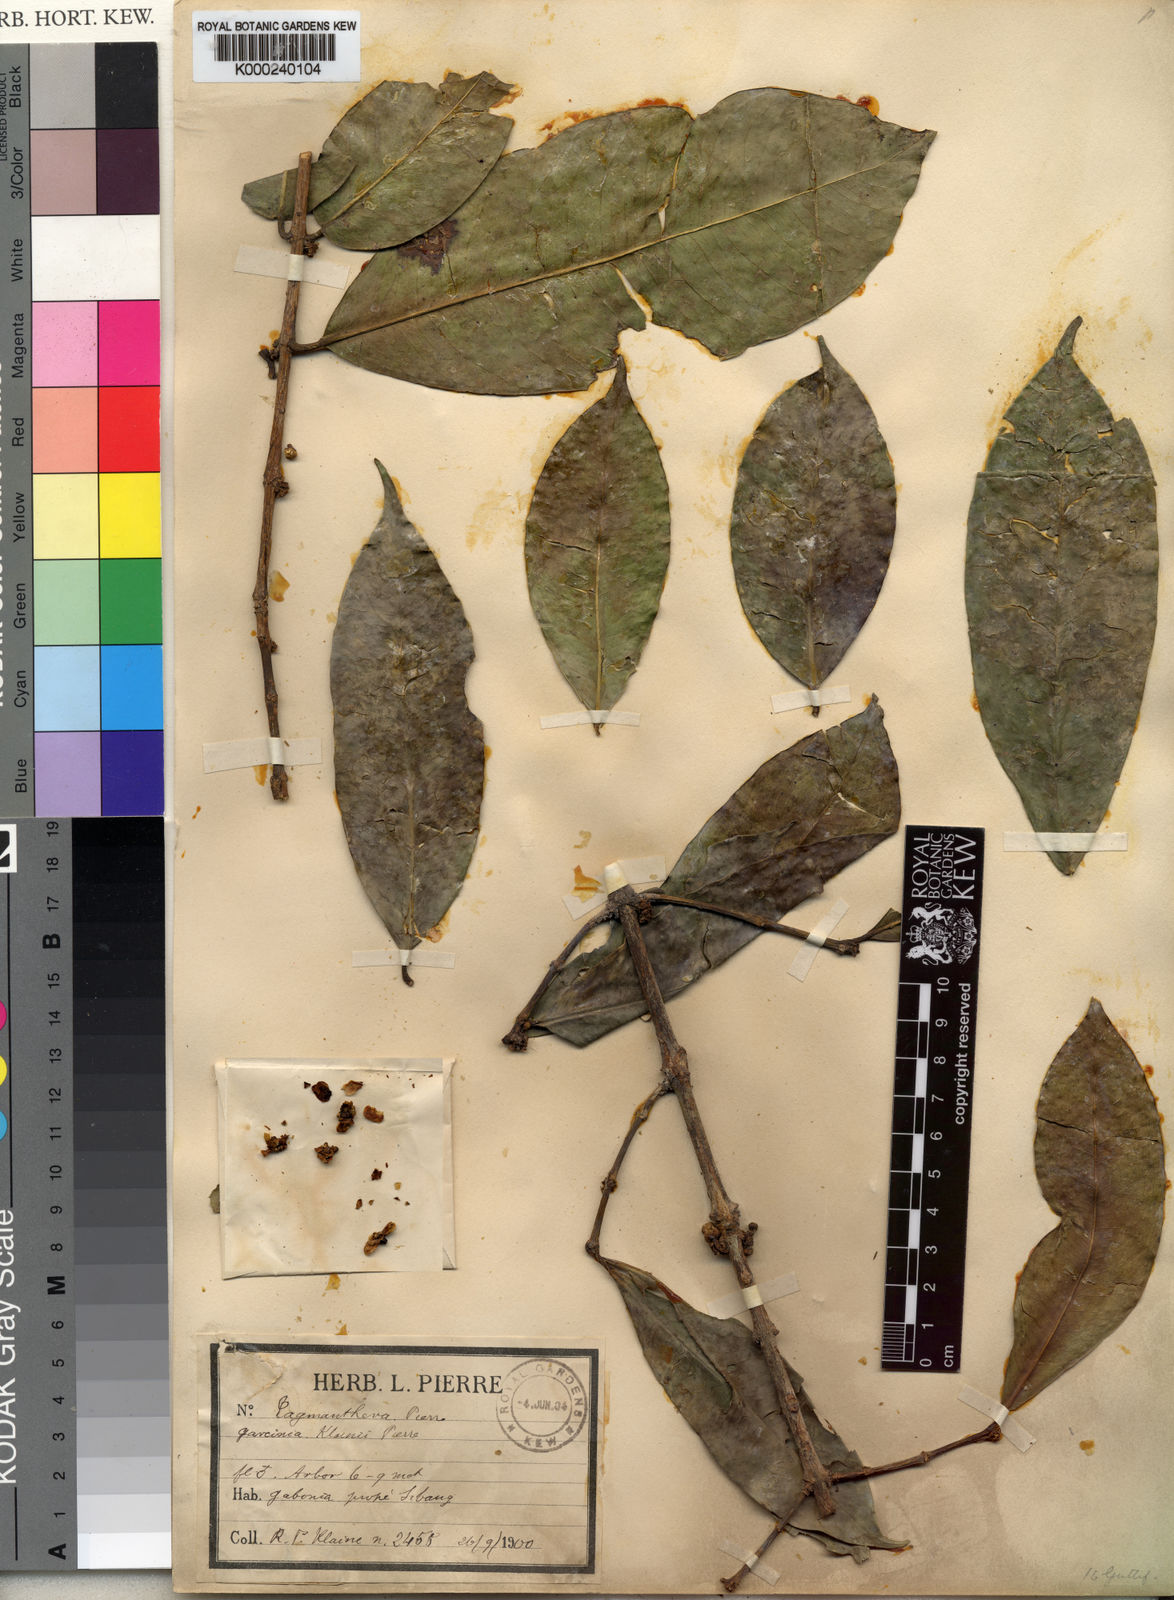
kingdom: Plantae
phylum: Tracheophyta
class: Magnoliopsida
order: Malpighiales
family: Clusiaceae
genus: Garcinia
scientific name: Garcinia epunctata
